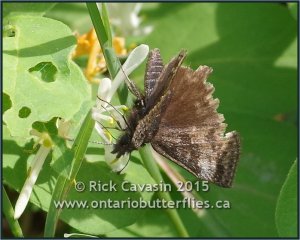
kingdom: Animalia
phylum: Arthropoda
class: Insecta
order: Lepidoptera
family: Hesperiidae
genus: Erynnis
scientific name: Erynnis icelus
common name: Dreamy Duskywing
